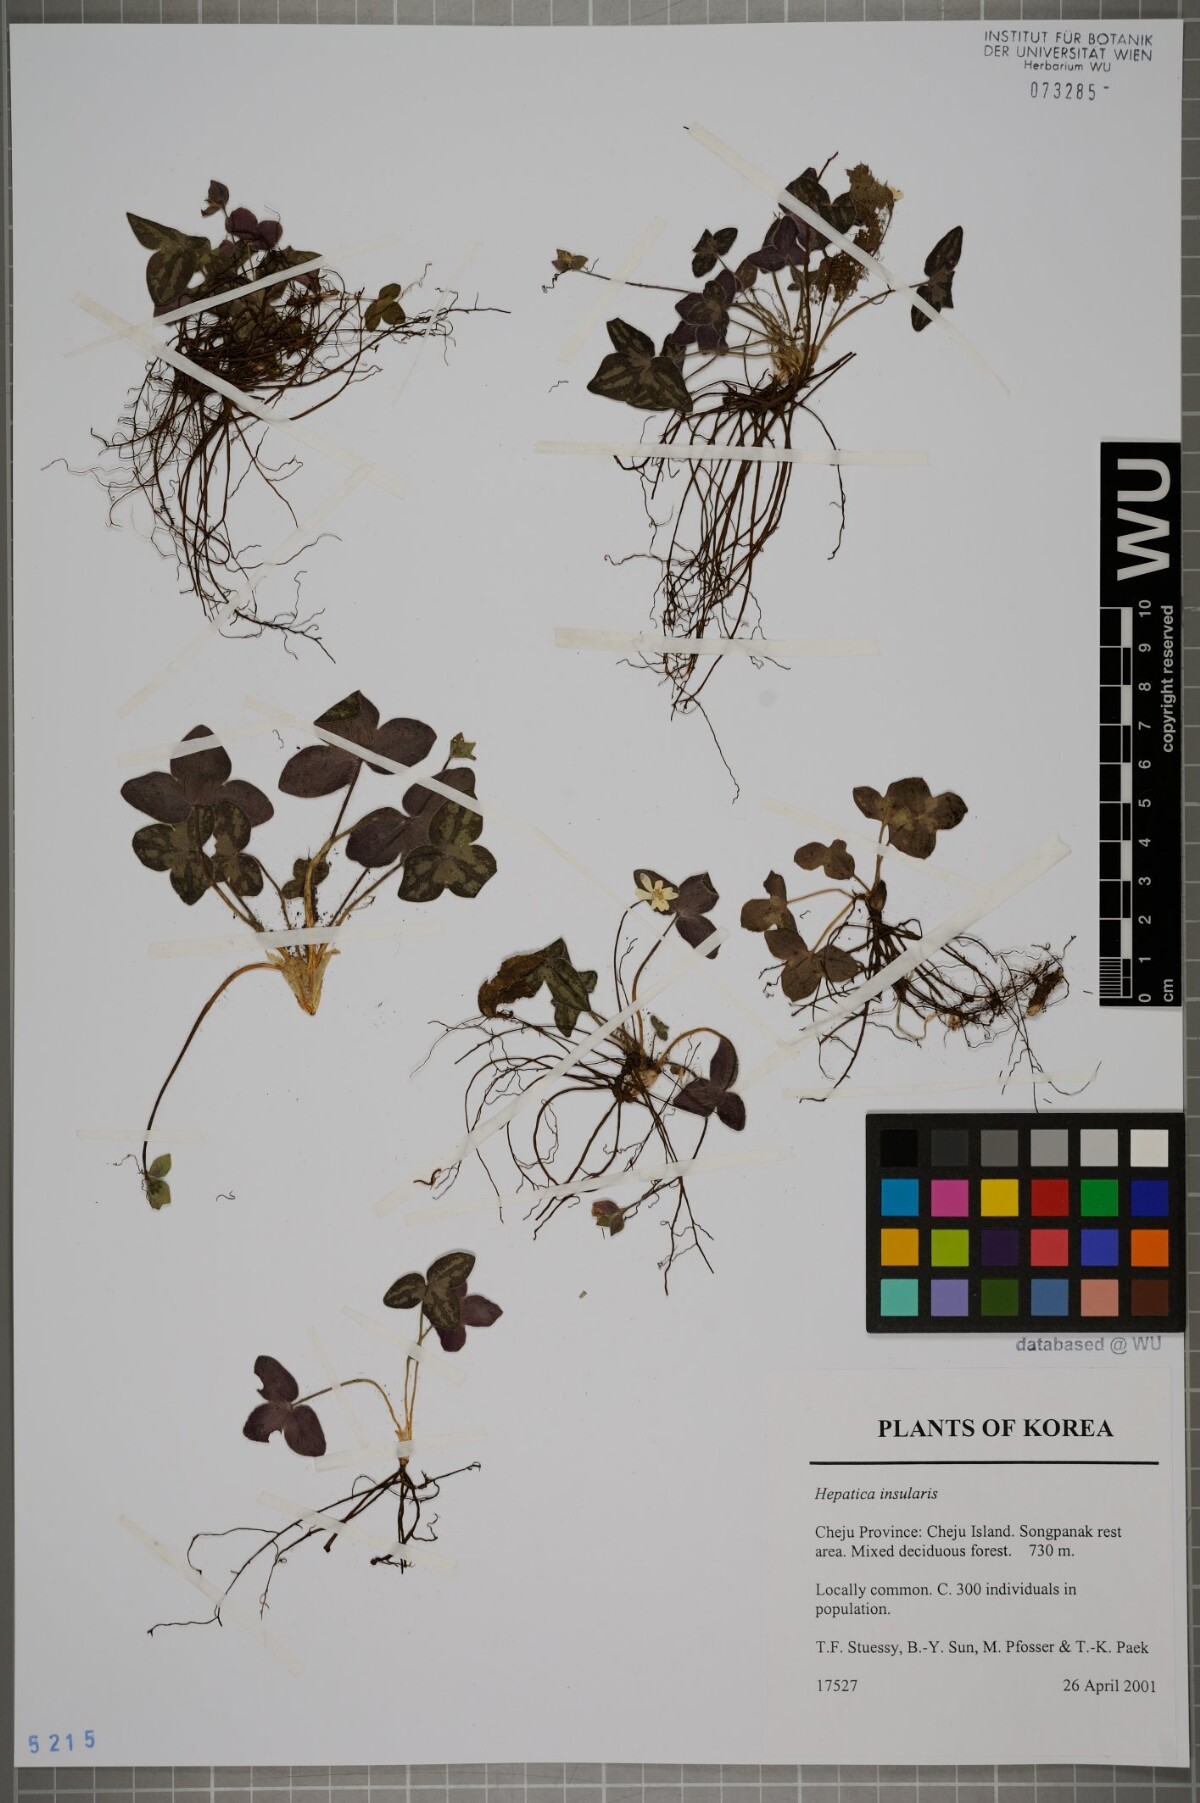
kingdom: Plantae
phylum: Tracheophyta
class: Magnoliopsida
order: Ranunculales
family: Ranunculaceae
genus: Hepatica
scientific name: Hepatica insularis
